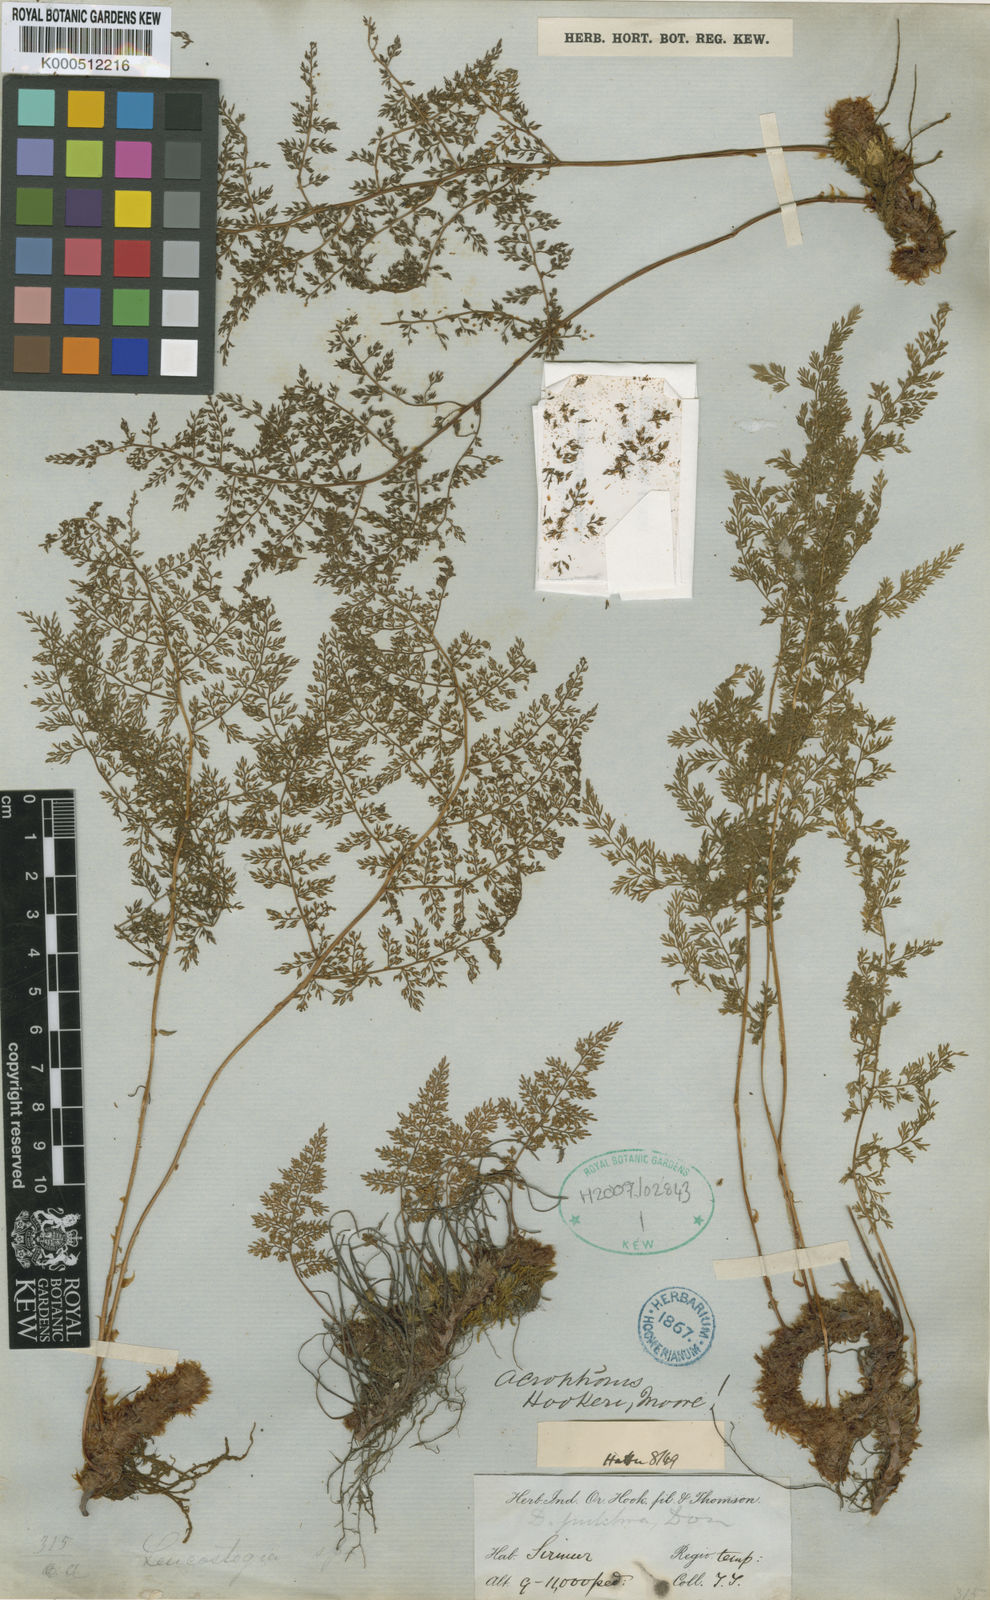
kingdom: Plantae
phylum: Tracheophyta
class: Polypodiopsida
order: Polypodiales
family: Davalliaceae
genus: Davallia
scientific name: Davallia hookeri
